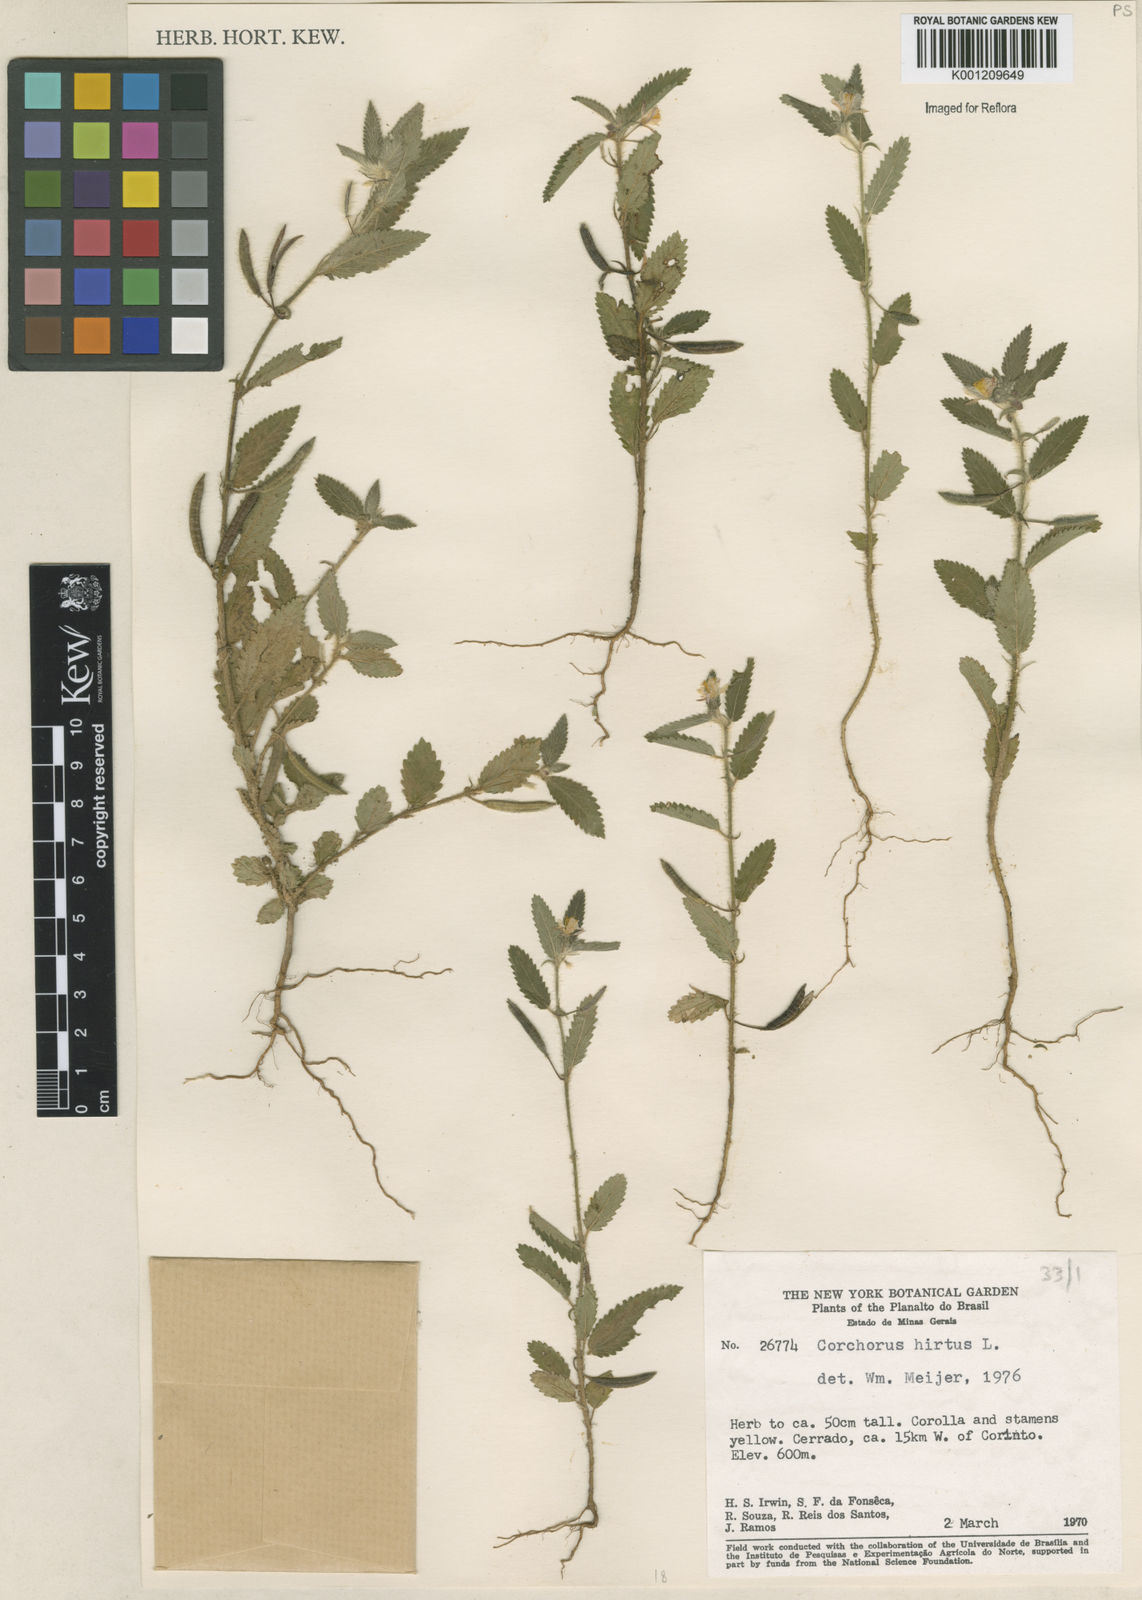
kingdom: Plantae
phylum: Tracheophyta
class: Magnoliopsida
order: Malvales
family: Malvaceae
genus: Corchorus
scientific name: Corchorus hirtus
